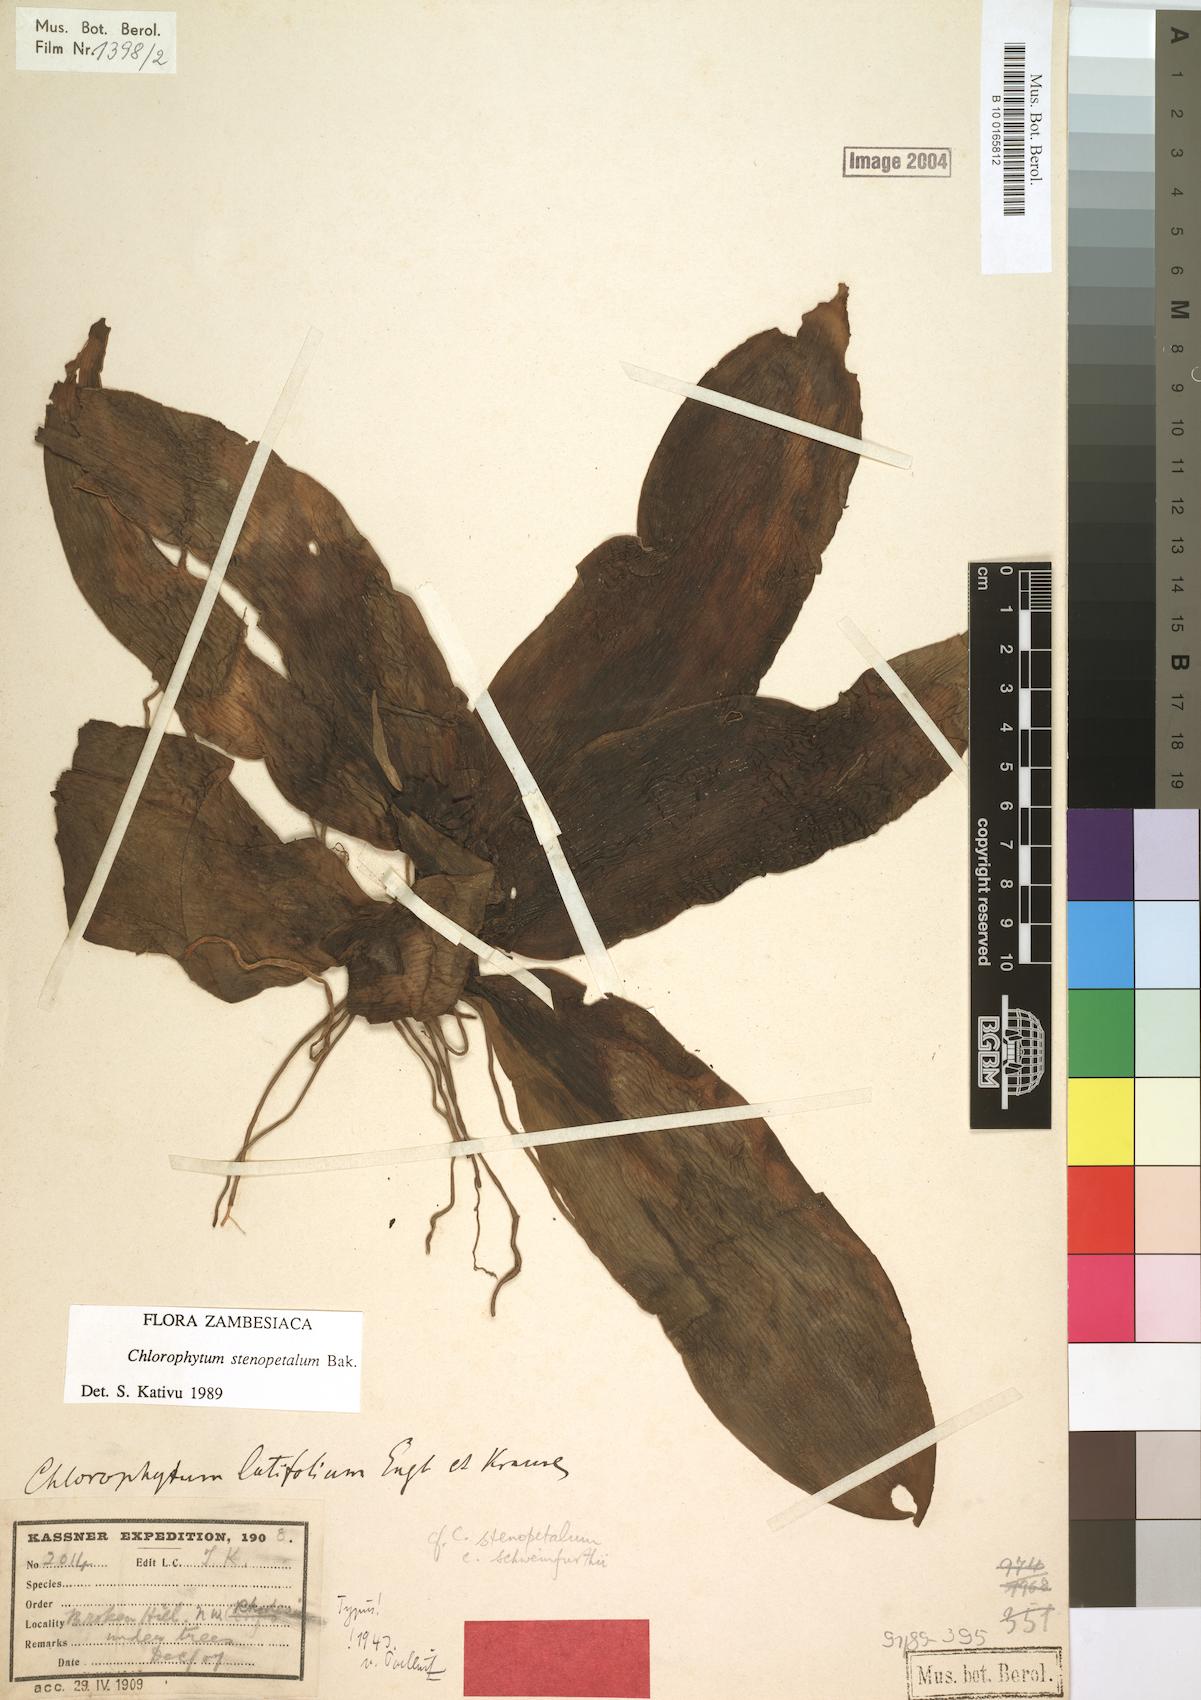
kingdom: Plantae
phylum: Tracheophyta
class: Liliopsida
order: Asparagales
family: Asparagaceae
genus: Chlorophytum
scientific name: Chlorophytum stenopetalum
